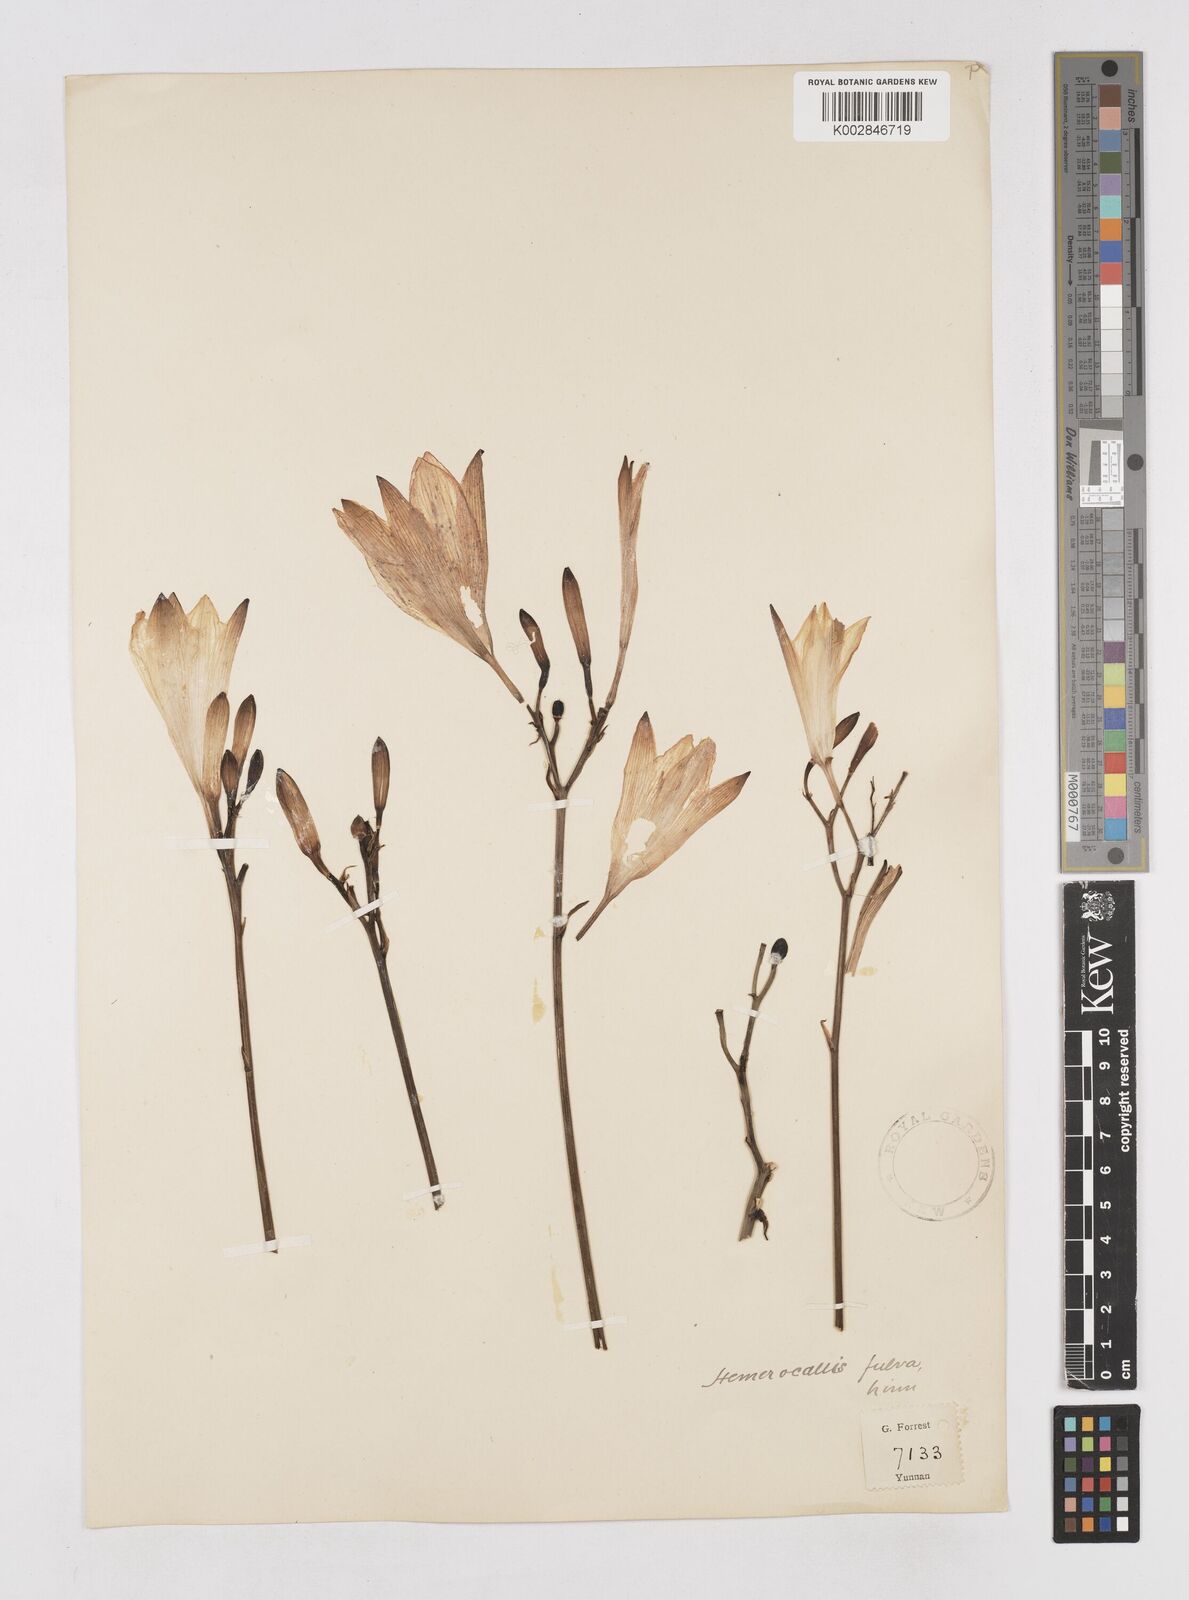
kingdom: Plantae
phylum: Tracheophyta
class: Liliopsida
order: Asparagales
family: Asphodelaceae
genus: Hemerocallis
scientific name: Hemerocallis
